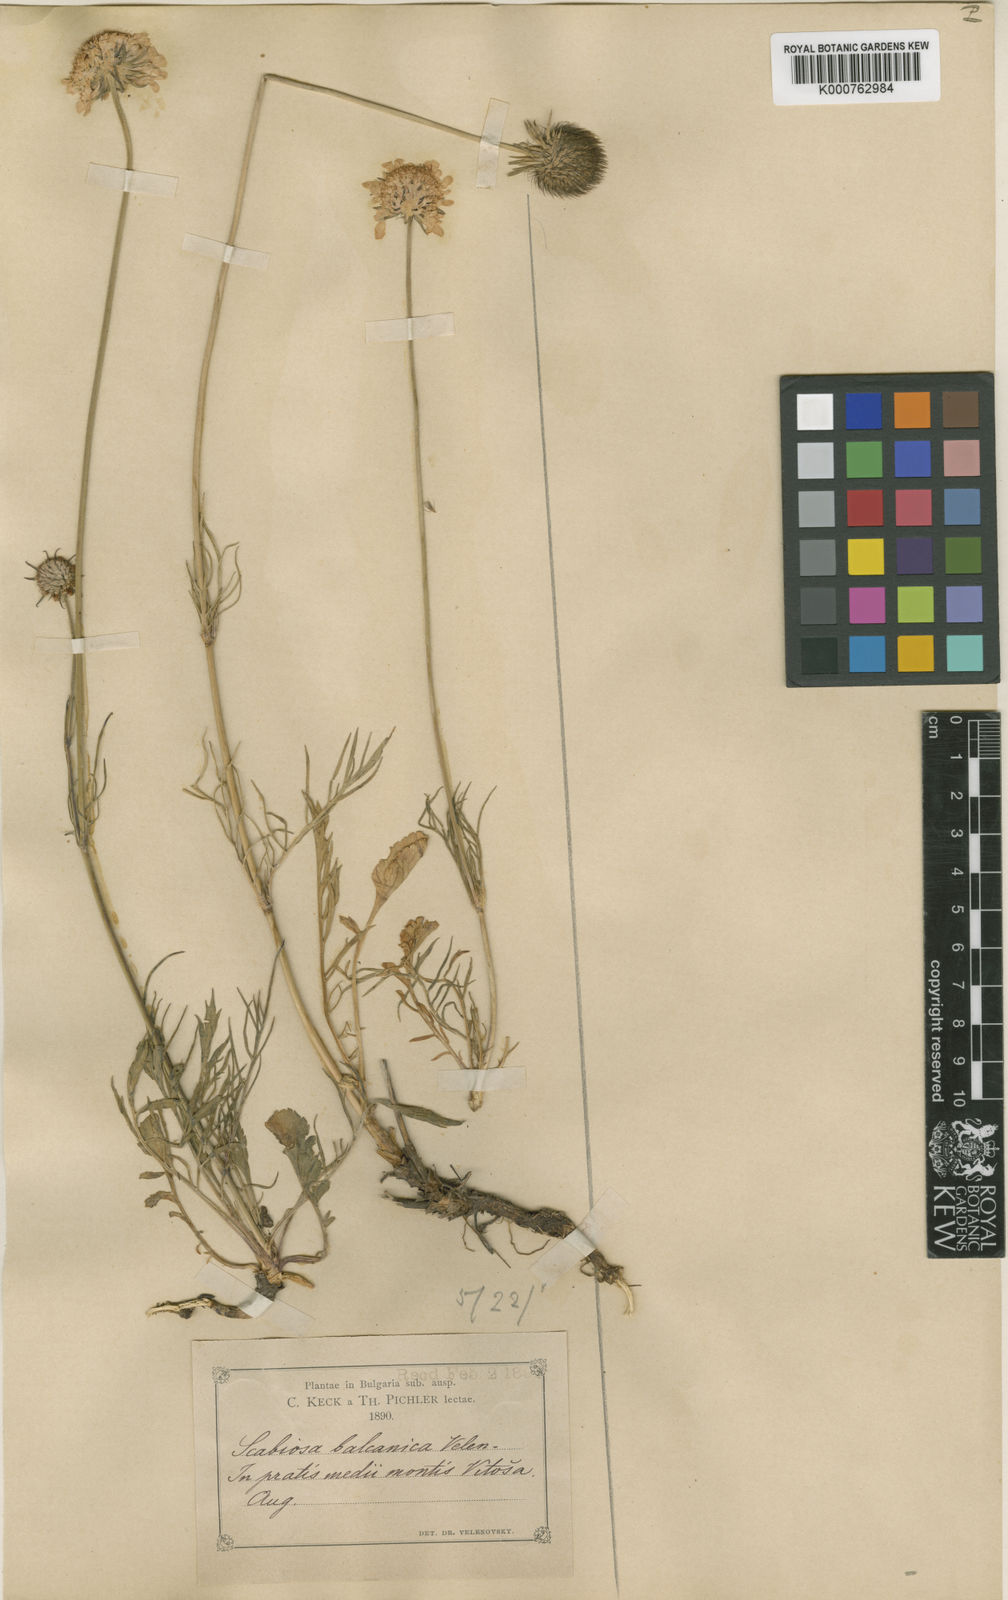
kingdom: Plantae
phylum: Tracheophyta
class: Magnoliopsida
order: Dipsacales
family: Caprifoliaceae
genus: Scabiosa
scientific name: Scabiosa
